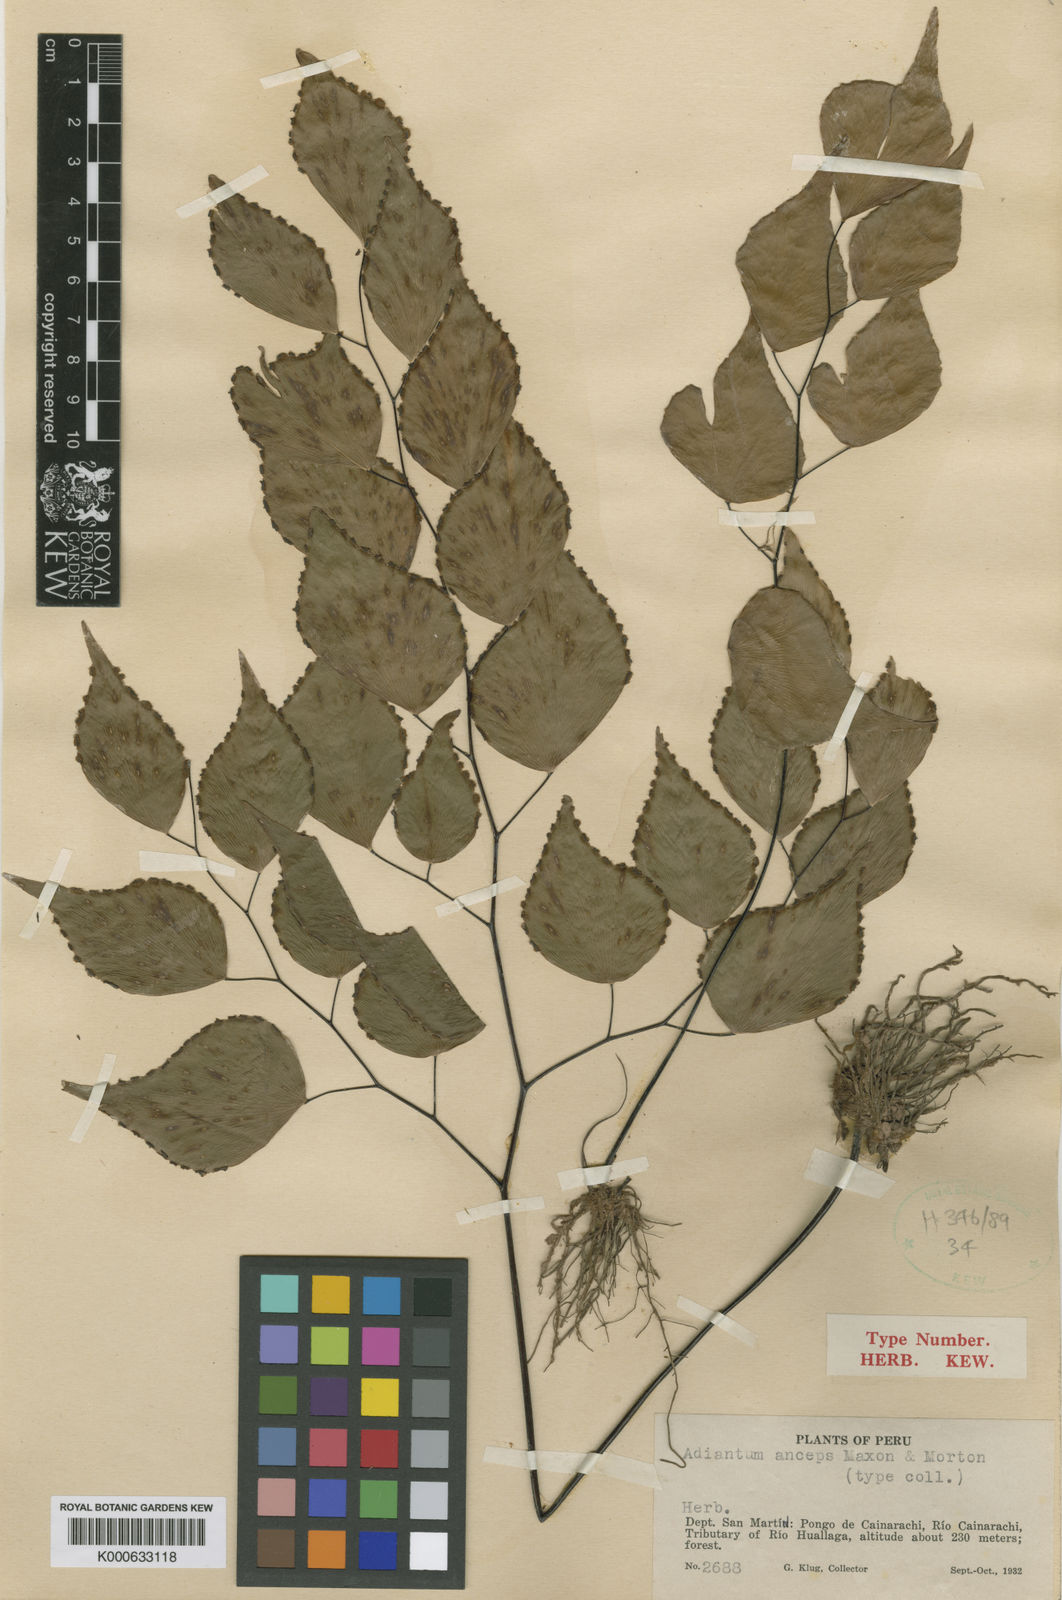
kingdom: Plantae
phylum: Tracheophyta
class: Polypodiopsida
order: Polypodiales
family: Pteridaceae
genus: Adiantum
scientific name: Adiantum anceps
